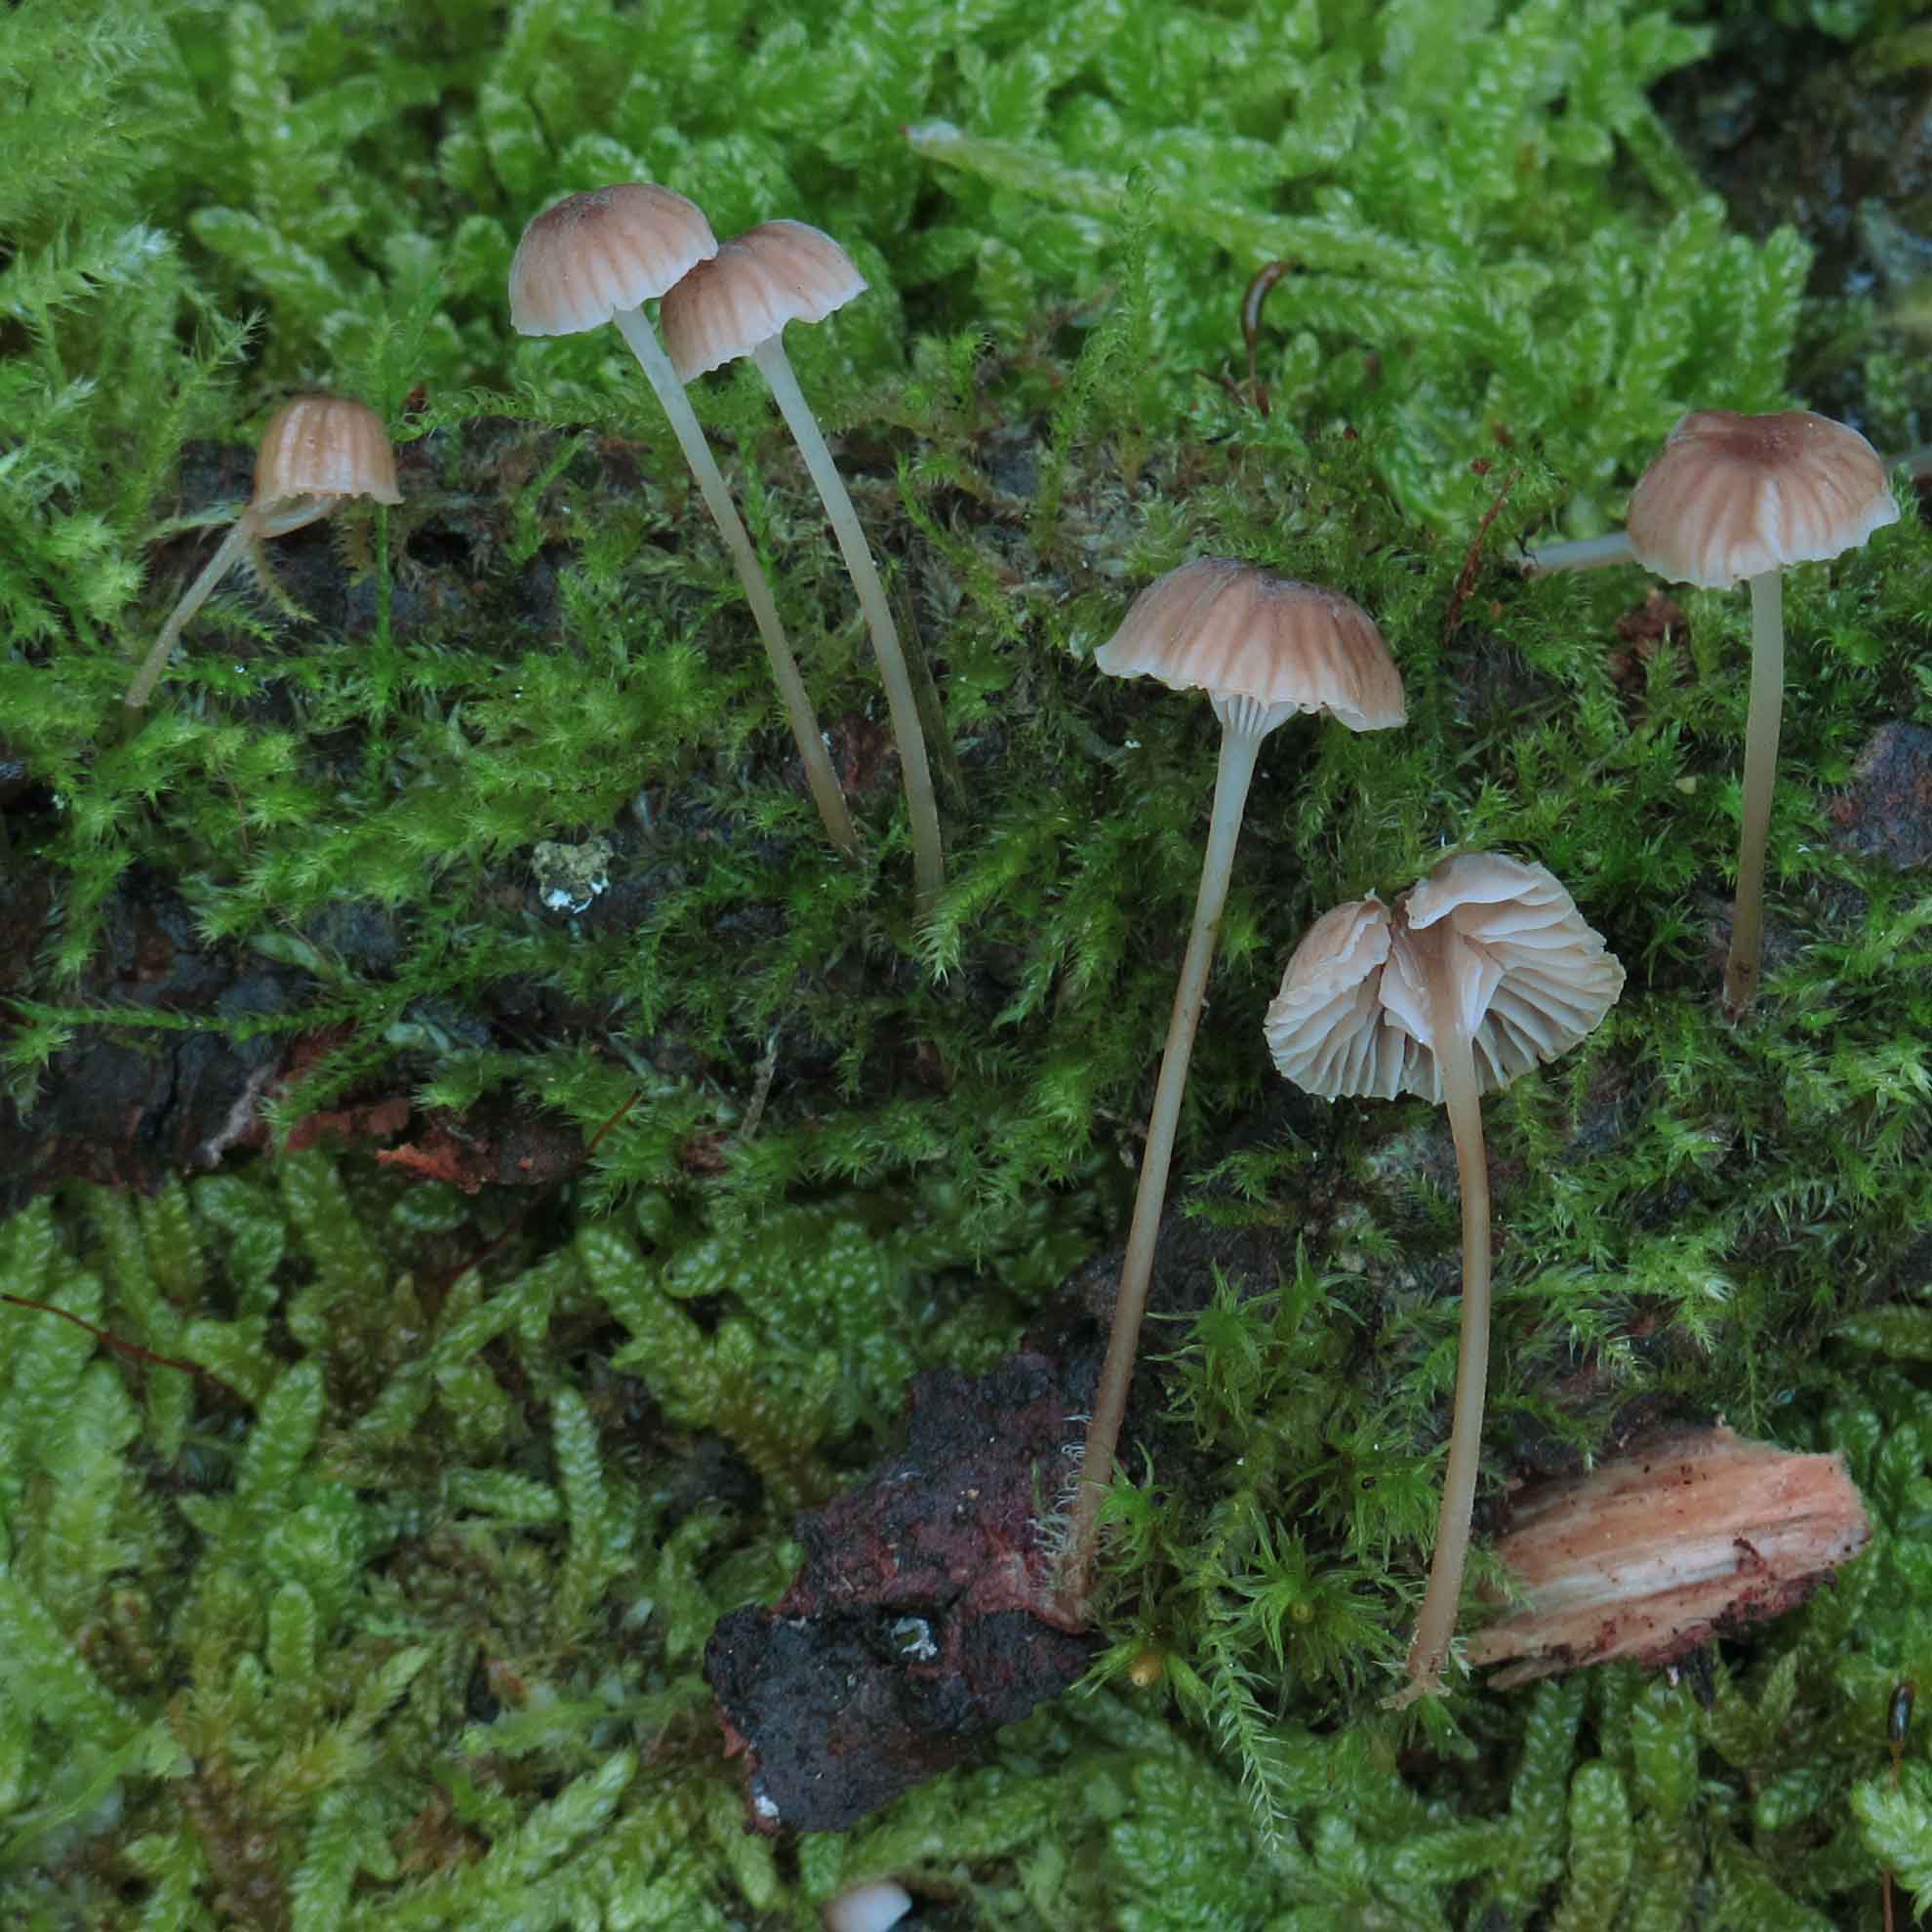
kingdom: Fungi
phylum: Basidiomycota
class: Agaricomycetes
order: Agaricales
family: Porotheleaceae
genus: Phloeomana
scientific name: Phloeomana clavata
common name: brunbladet huesvamp
